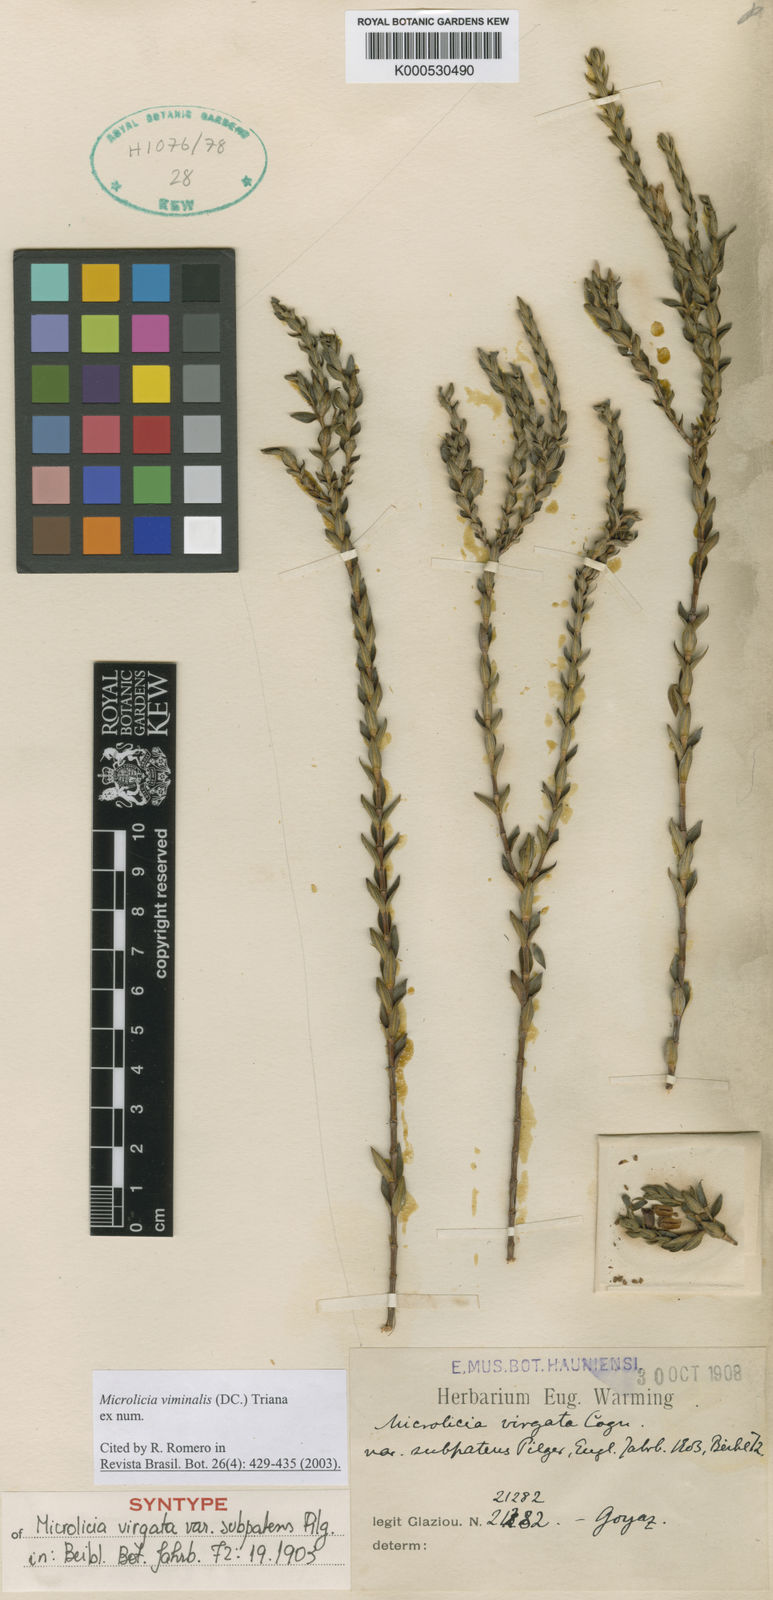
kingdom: Plantae
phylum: Tracheophyta
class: Magnoliopsida
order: Myrtales
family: Melastomataceae
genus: Microlicia
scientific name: Microlicia viminalis
